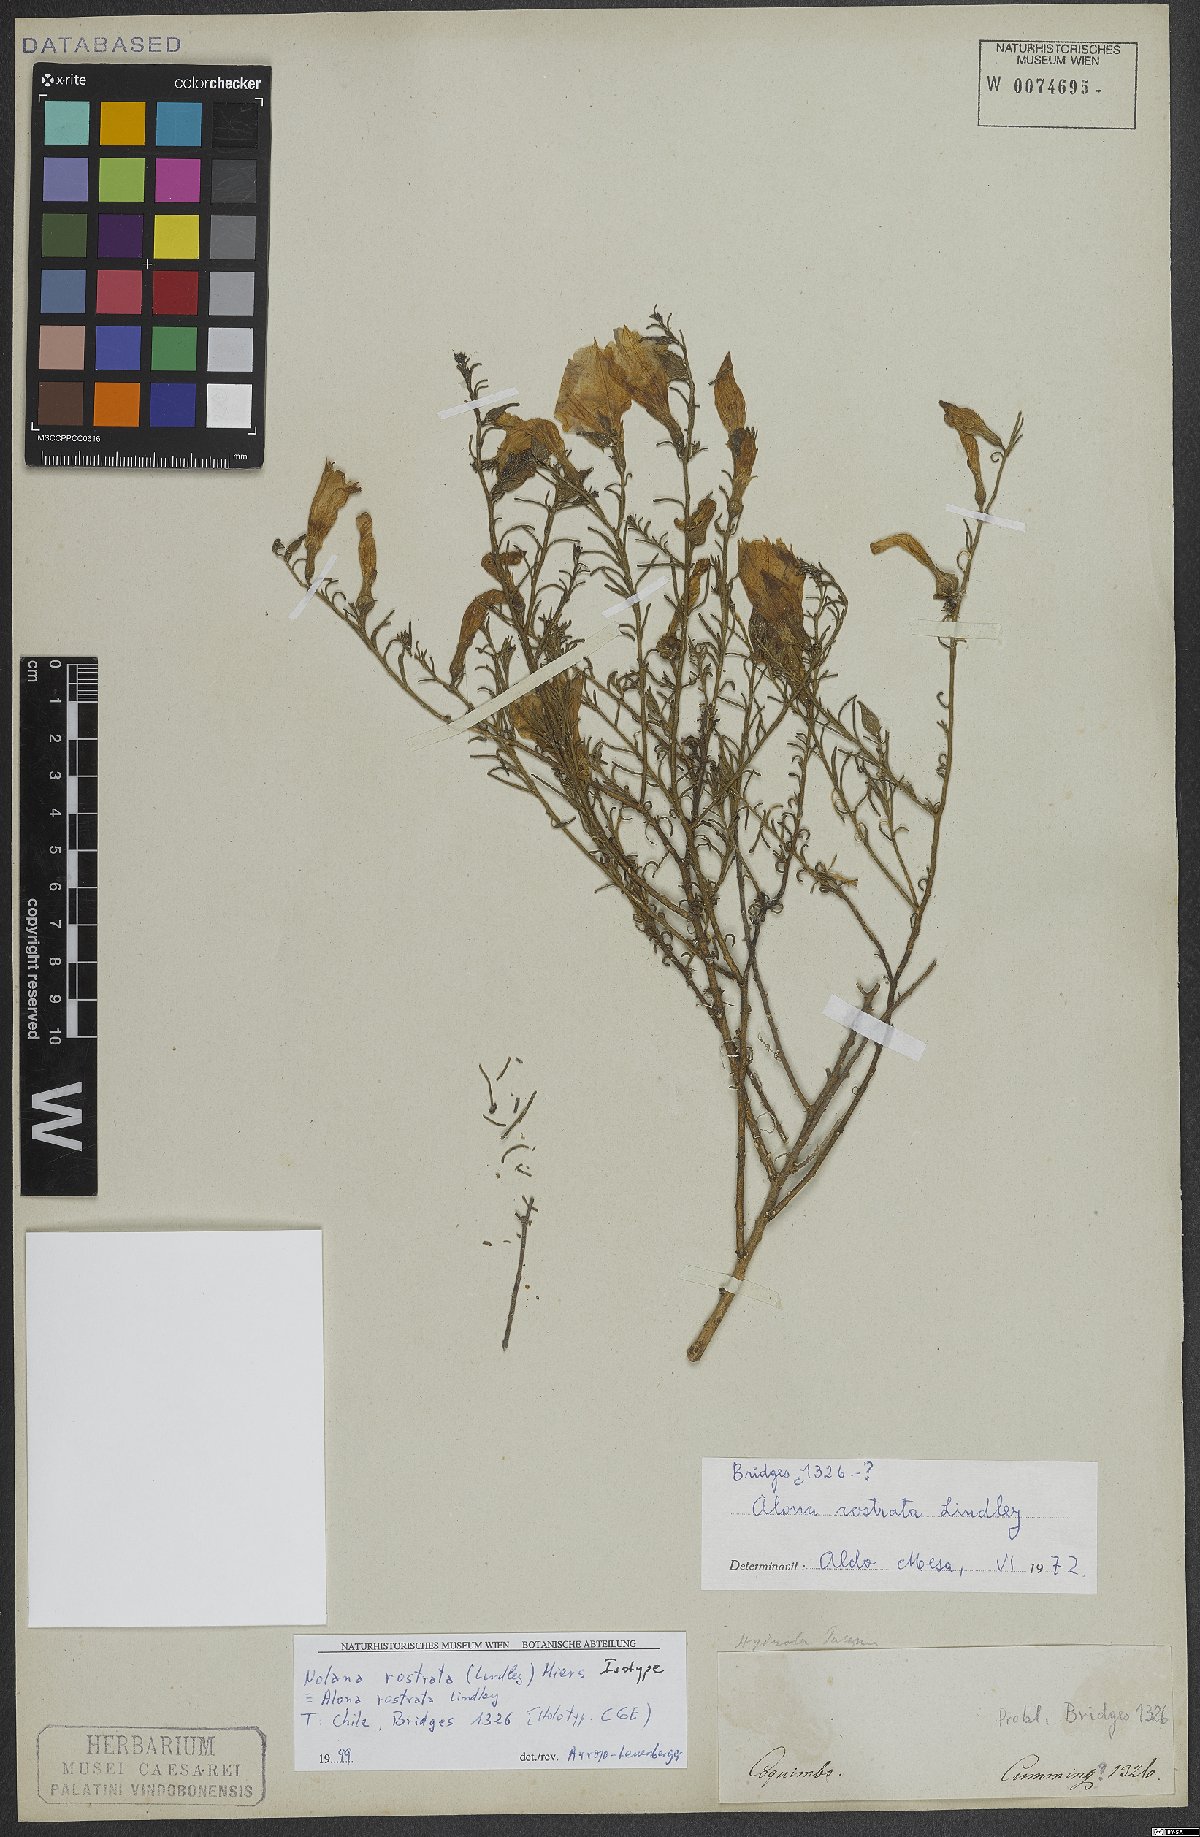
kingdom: Plantae
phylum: Tracheophyta
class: Magnoliopsida
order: Solanales
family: Solanaceae
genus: Nolana
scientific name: Nolana rostrata
